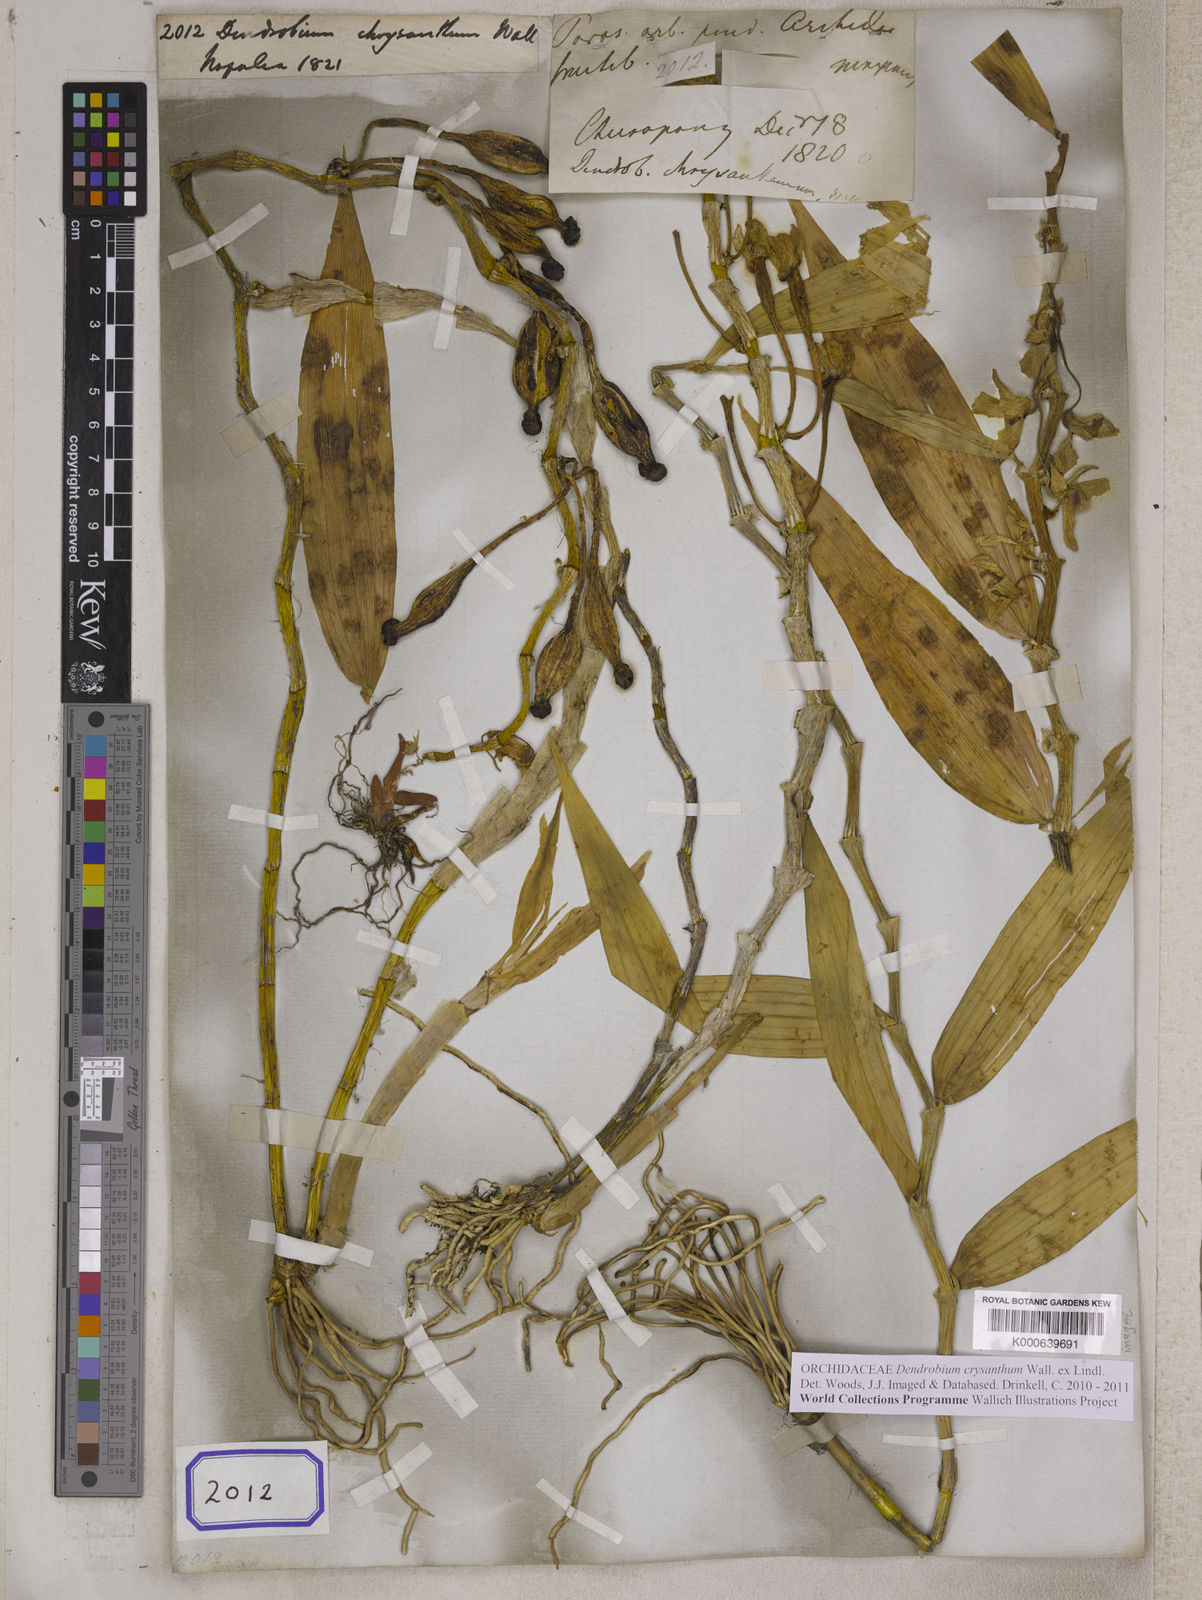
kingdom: Plantae
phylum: Tracheophyta
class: Liliopsida
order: Asparagales
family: Orchidaceae
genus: Dendrobium
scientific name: Dendrobium
